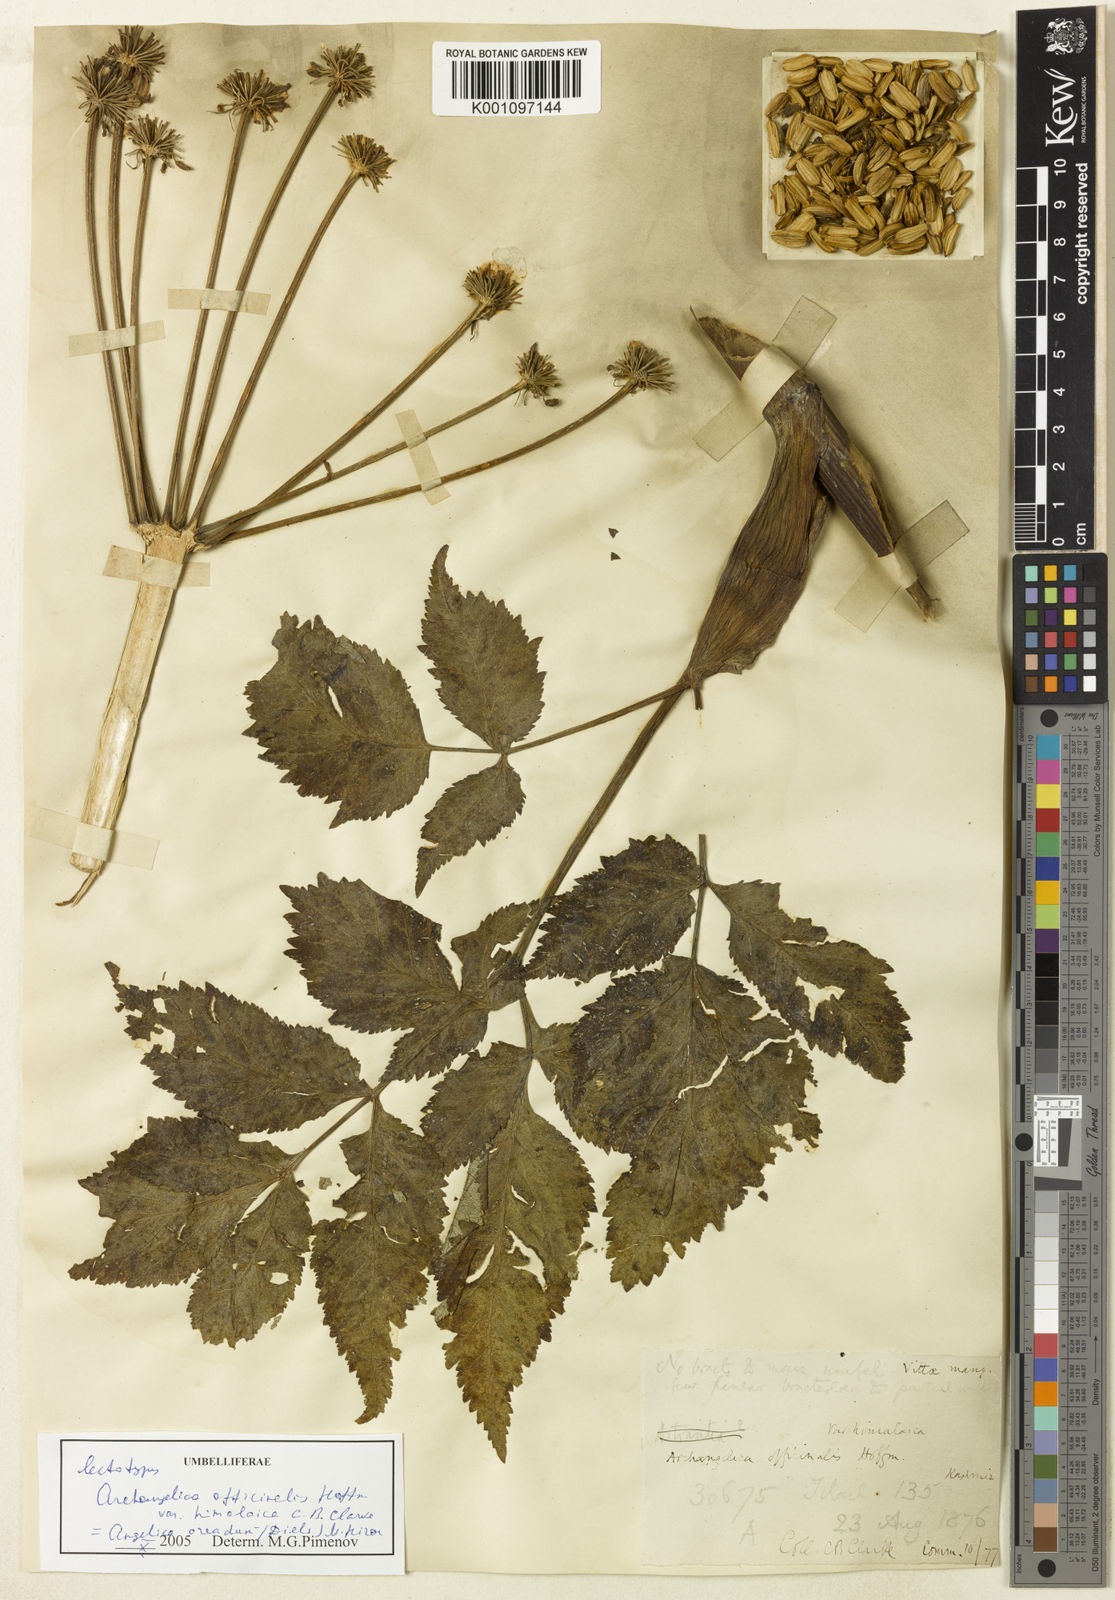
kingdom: Plantae
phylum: Tracheophyta
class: Magnoliopsida
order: Apiales
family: Apiaceae
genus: Angelica
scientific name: Angelica oreada
